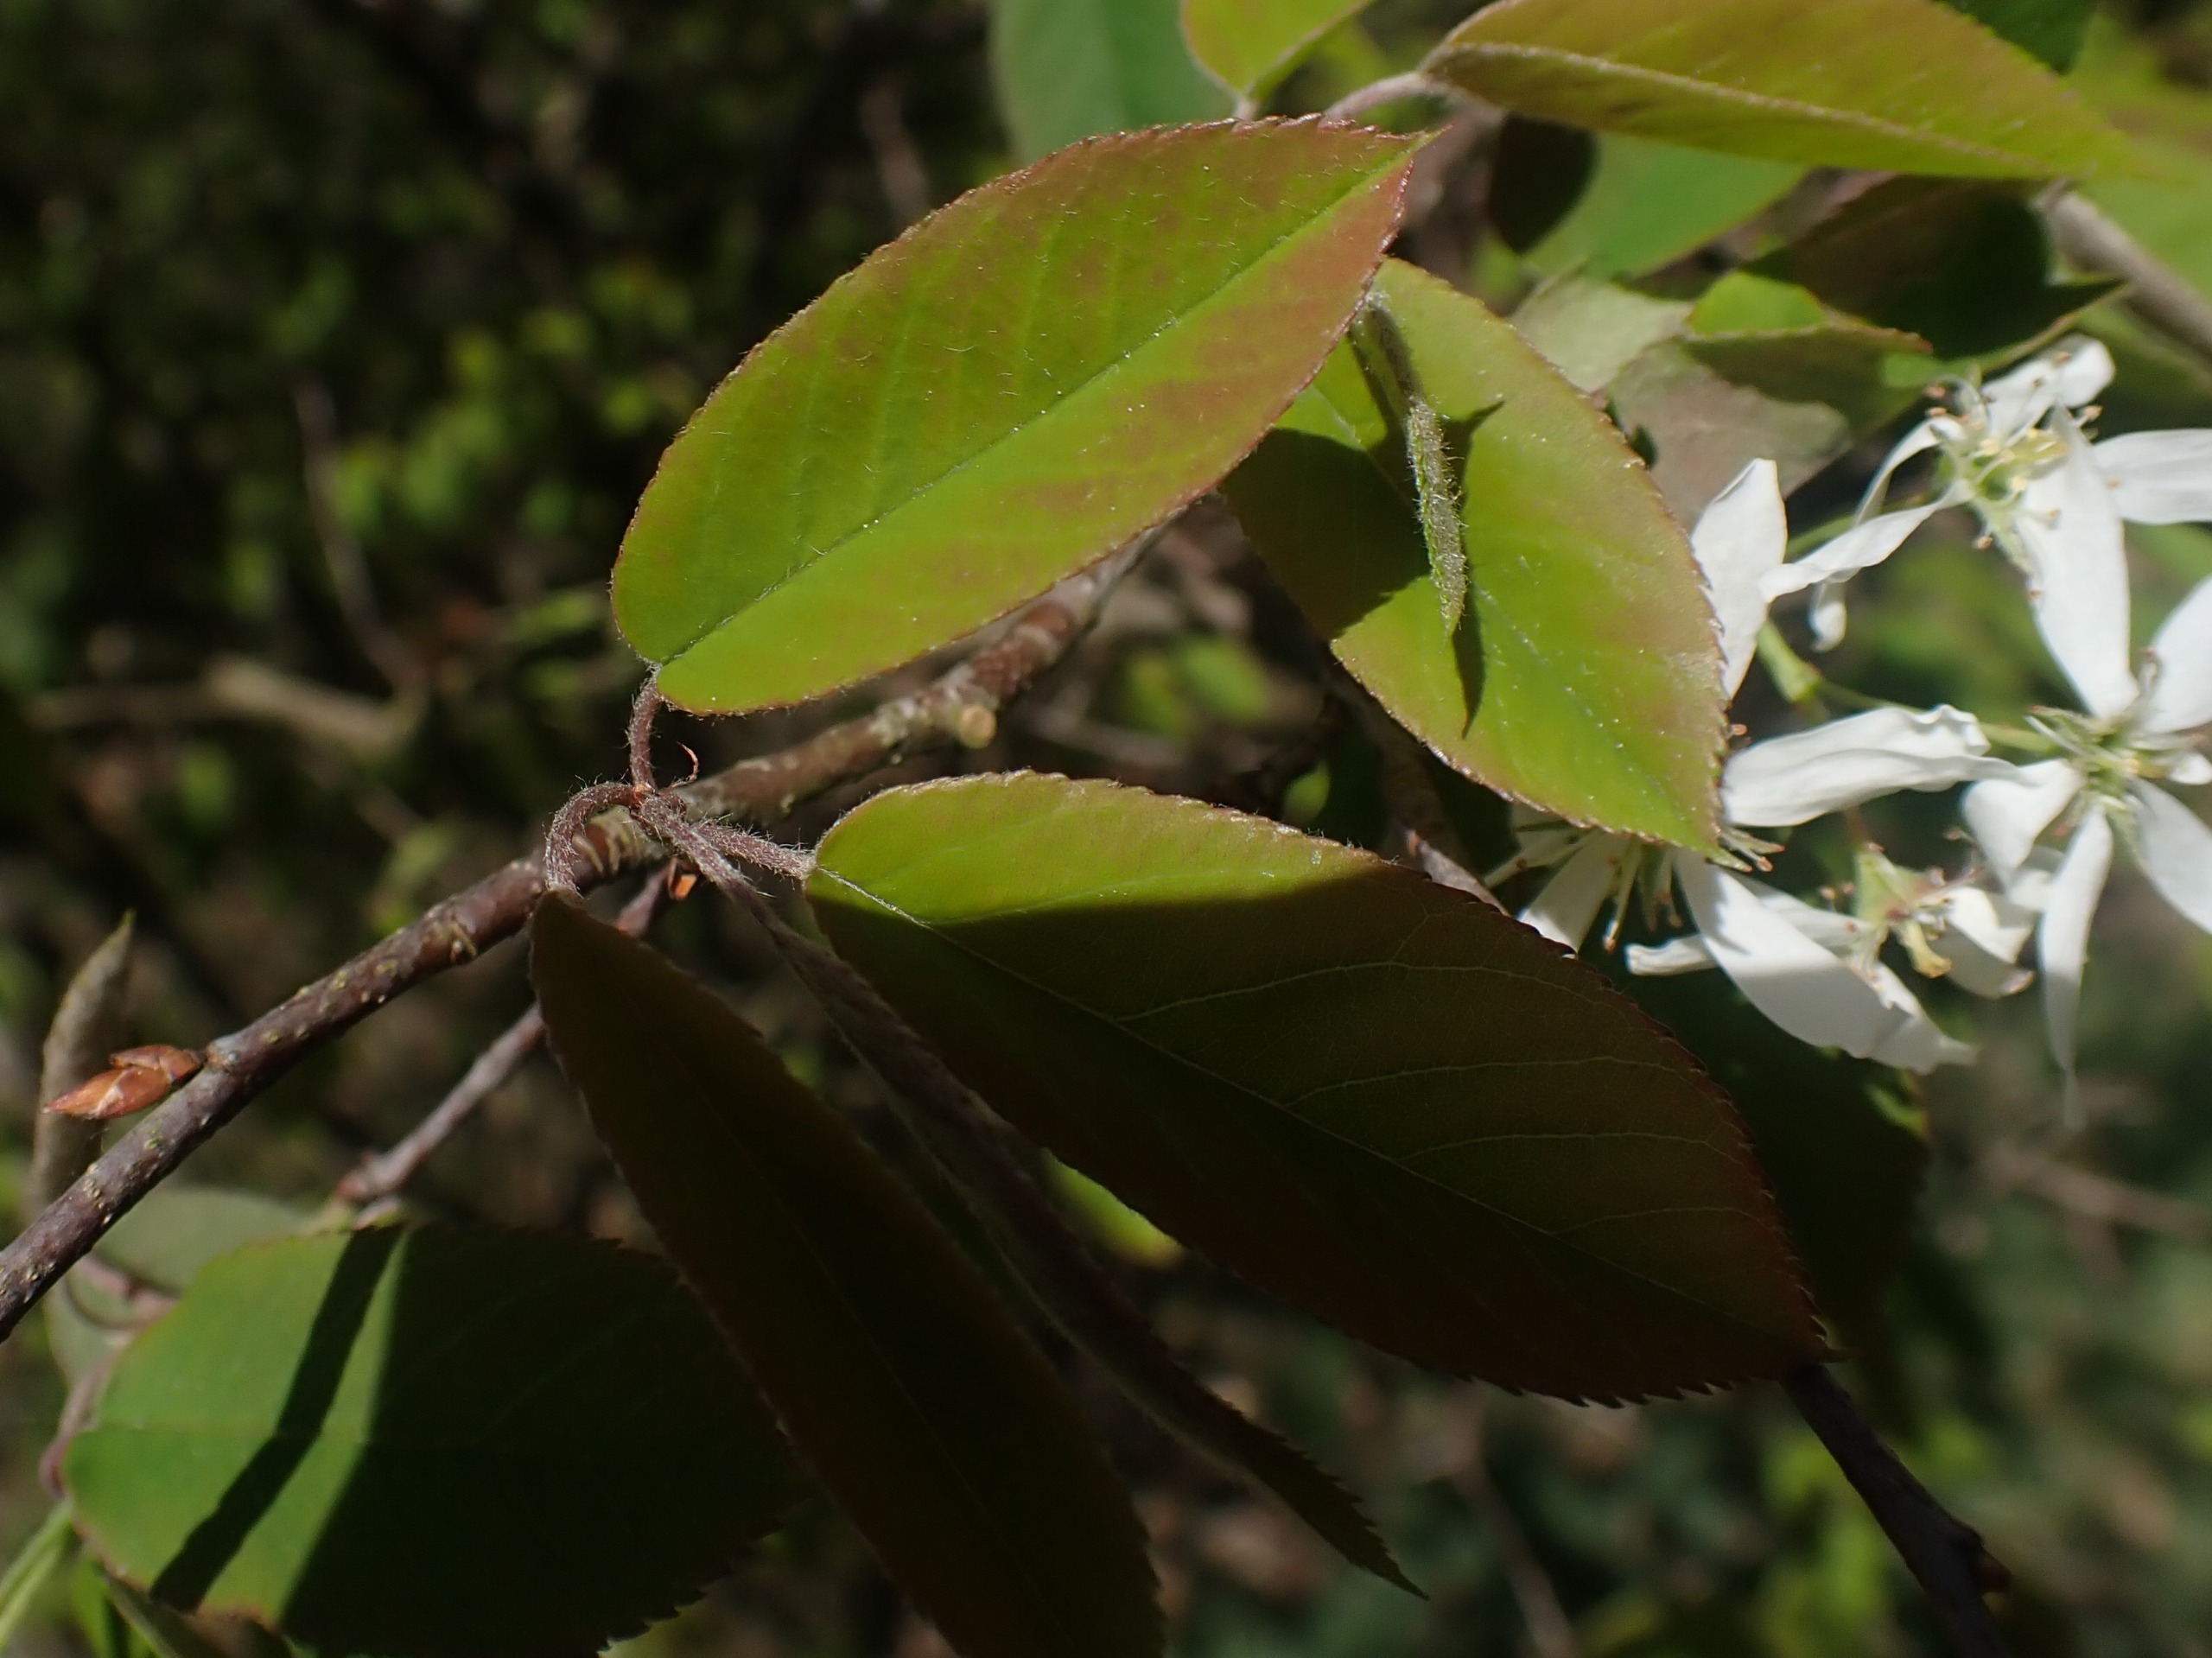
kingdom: Plantae
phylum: Tracheophyta
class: Magnoliopsida
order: Rosales
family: Rosaceae
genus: Amelanchier
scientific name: Amelanchier lamarckii
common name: Bærmispel
